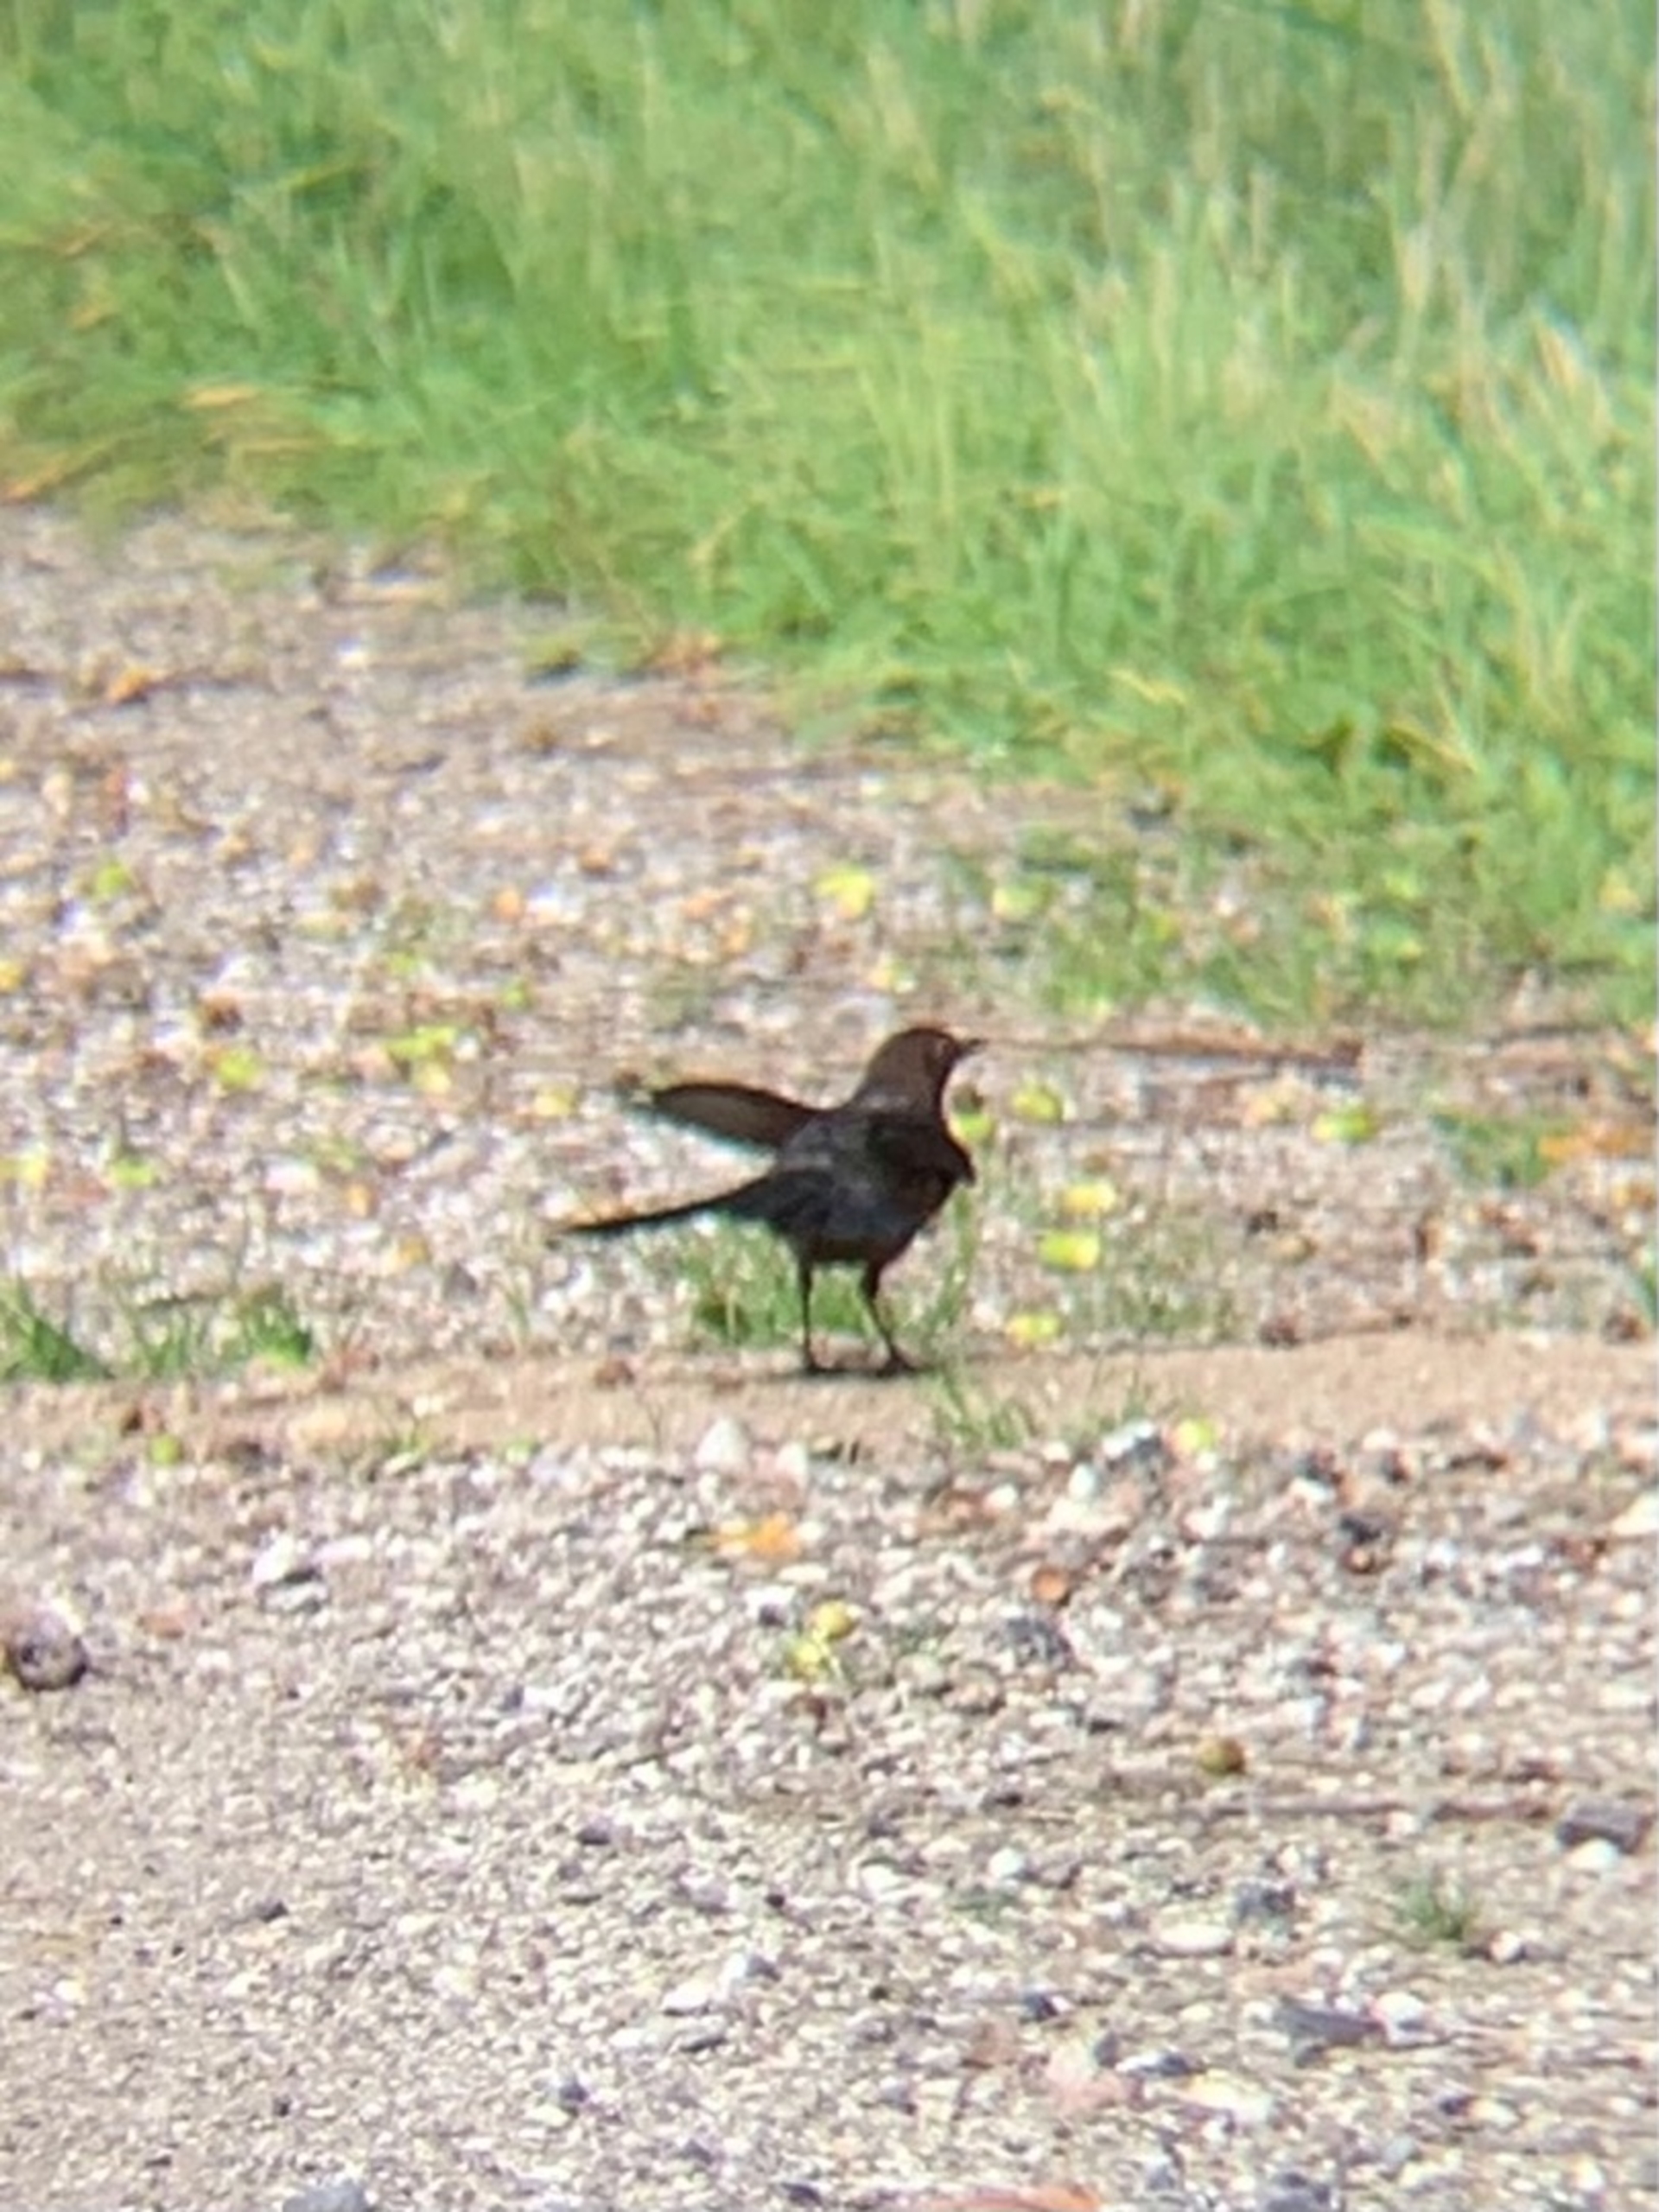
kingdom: Animalia
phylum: Chordata
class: Aves
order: Passeriformes
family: Turdidae
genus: Turdus
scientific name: Turdus merula
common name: Solsort
